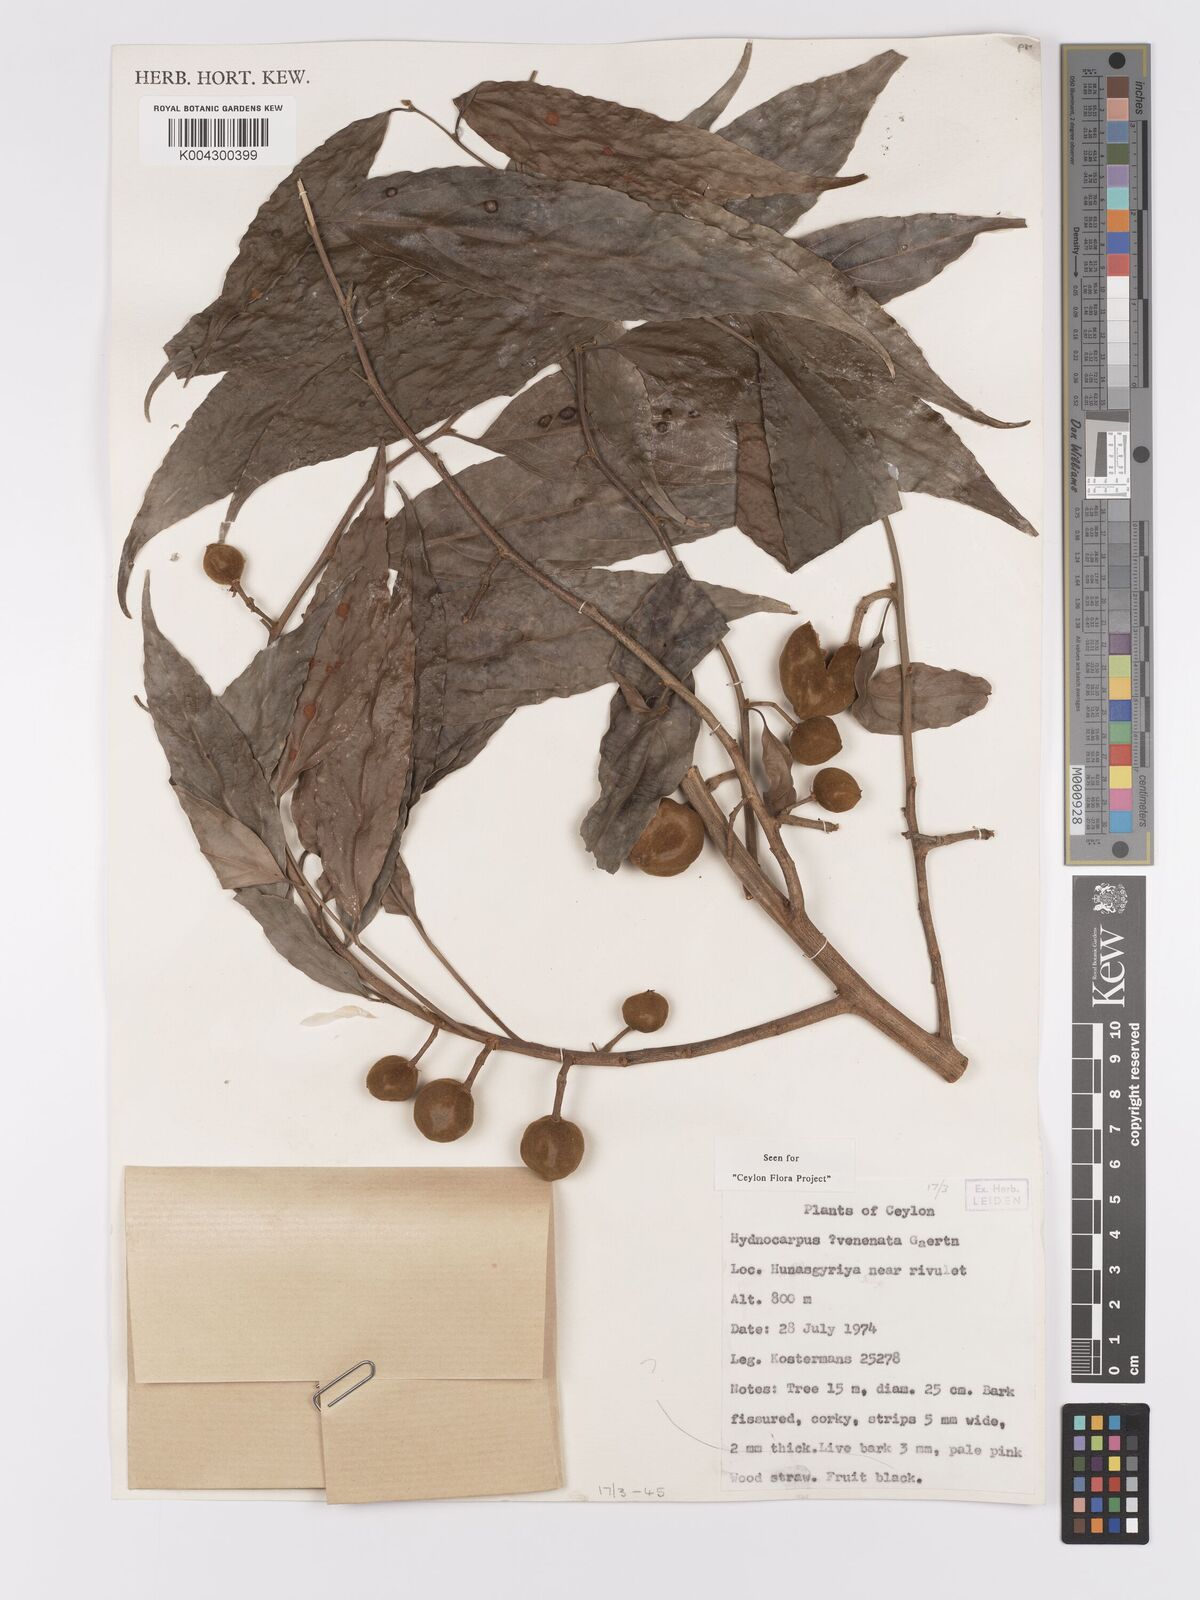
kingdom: Plantae
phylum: Tracheophyta
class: Magnoliopsida
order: Malpighiales
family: Achariaceae
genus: Hydnocarpus
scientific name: Hydnocarpus venenatus
